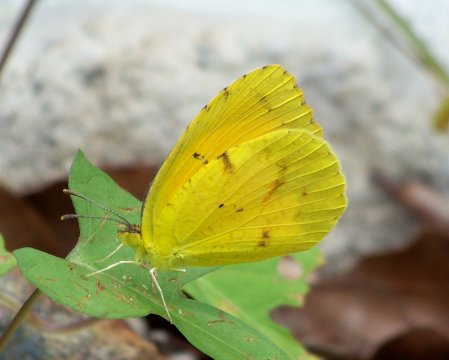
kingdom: Animalia
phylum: Arthropoda
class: Insecta
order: Lepidoptera
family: Pieridae
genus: Abaeis
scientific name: Abaeis nicippe
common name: Sleepy Orange
